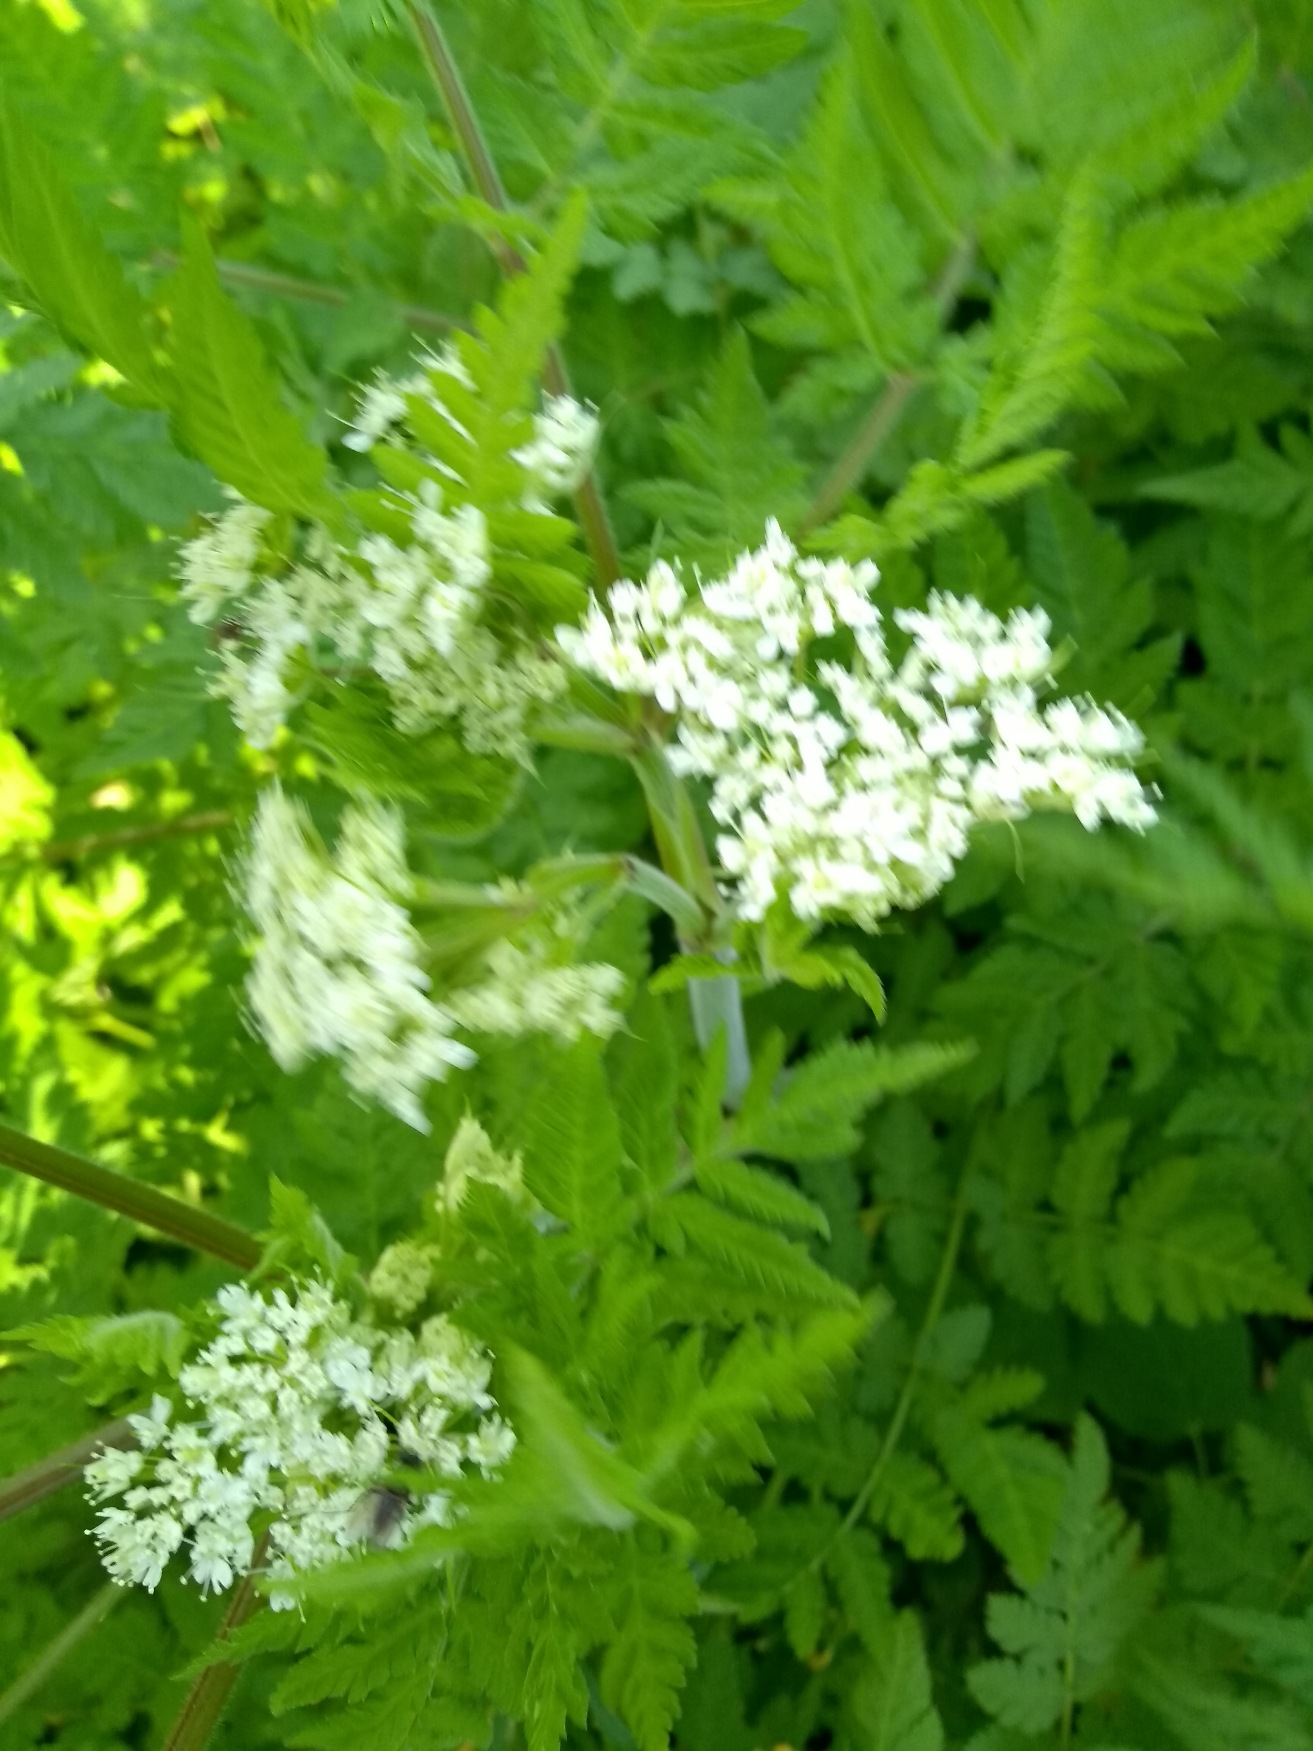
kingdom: Plantae
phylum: Tracheophyta
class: Magnoliopsida
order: Apiales
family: Apiaceae
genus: Myrrhis
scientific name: Myrrhis odorata
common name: Sødskærm
